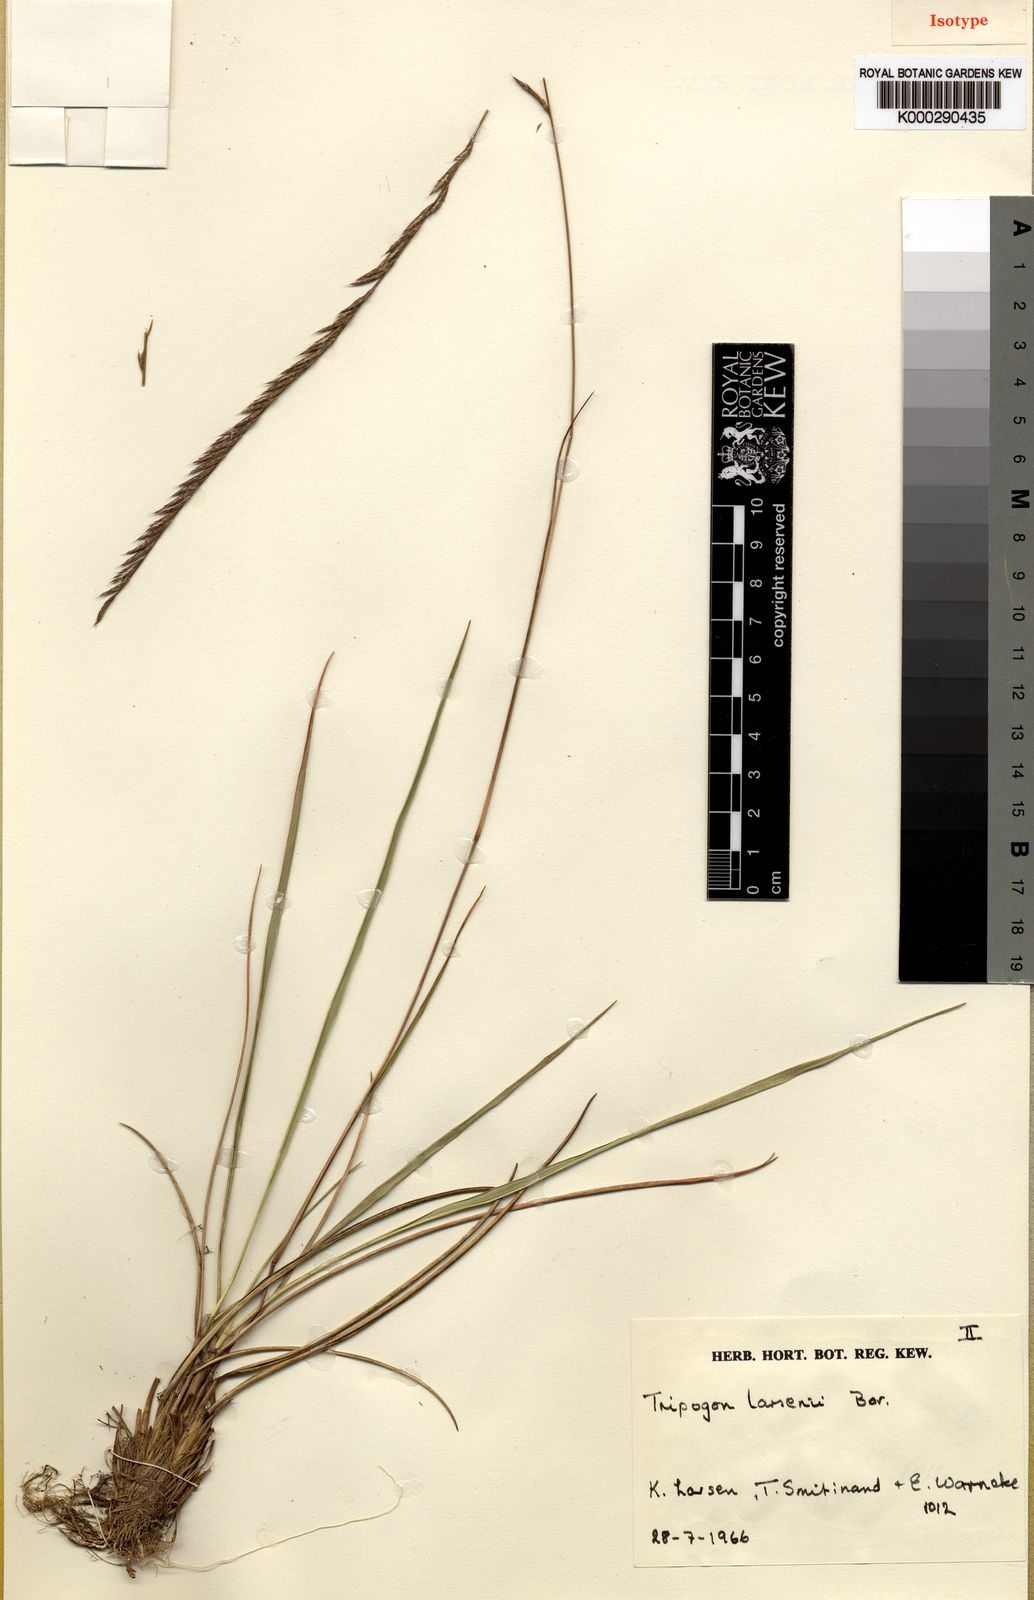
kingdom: Plantae
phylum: Tracheophyta
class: Liliopsida
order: Poales
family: Poaceae
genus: Tripogon
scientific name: Tripogon larsenii
